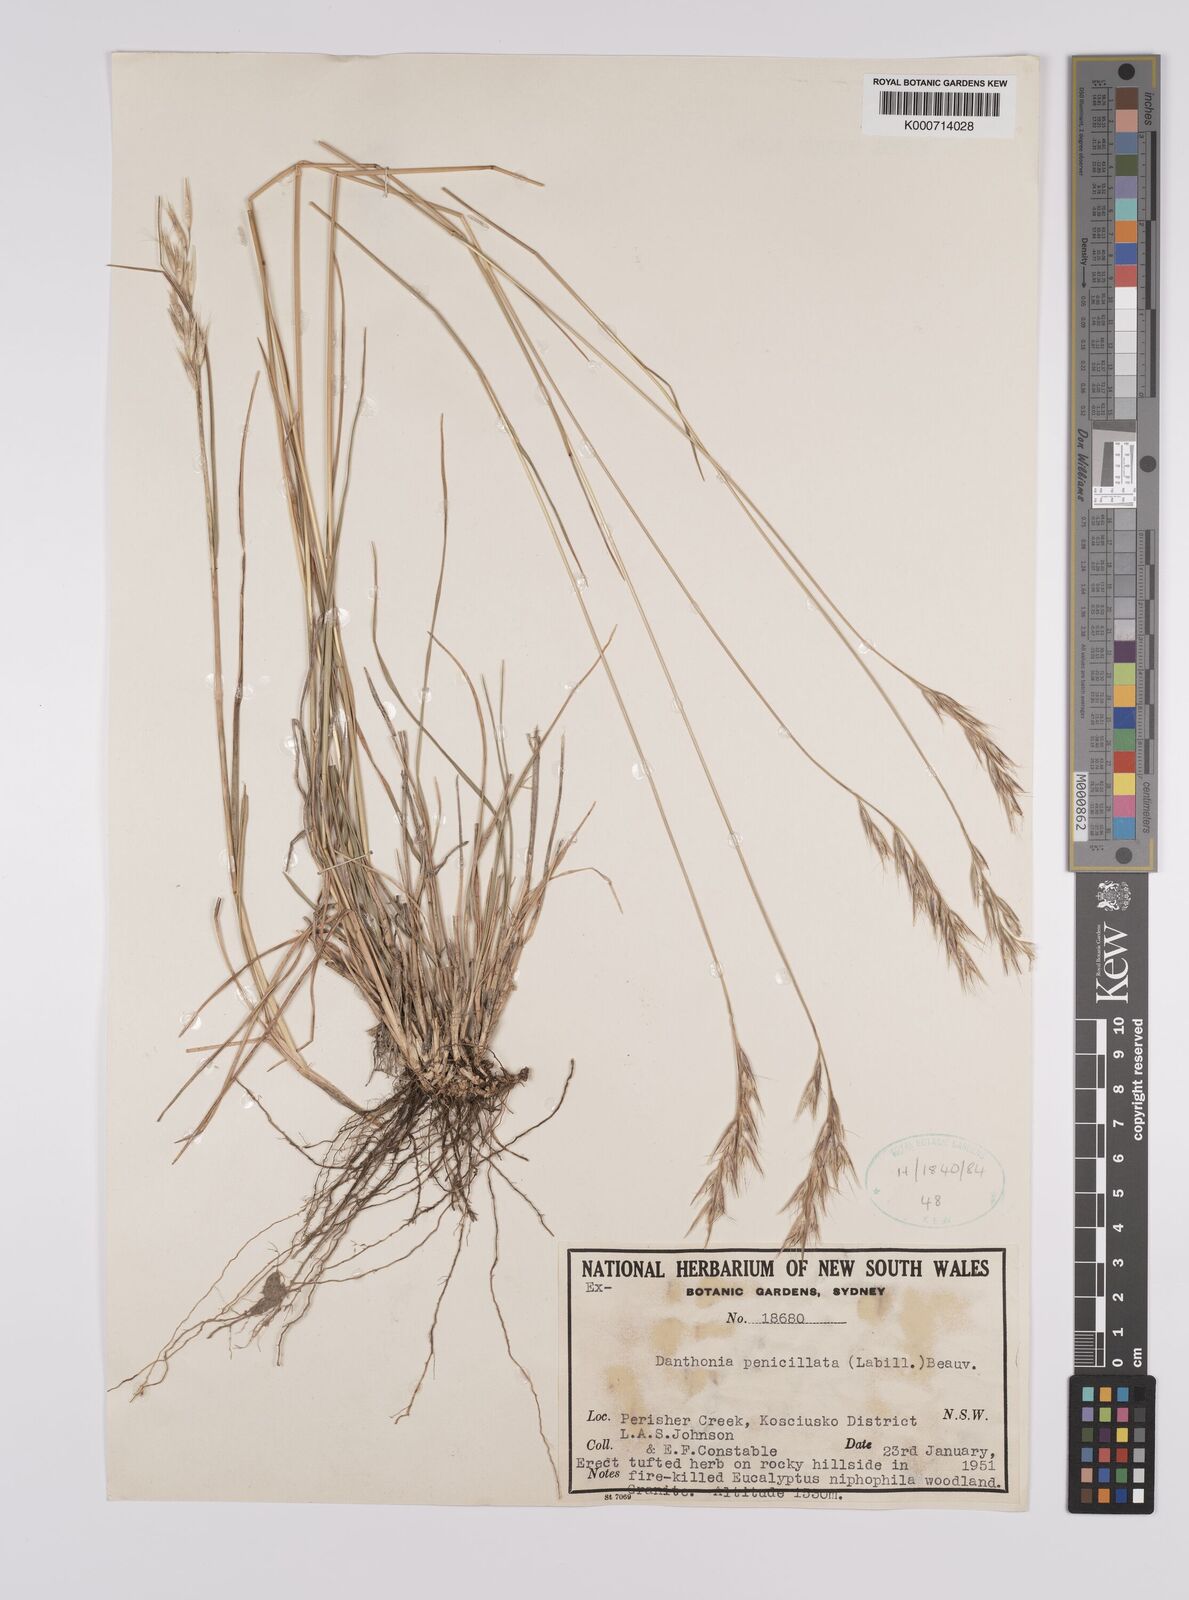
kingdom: Plantae
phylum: Tracheophyta
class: Liliopsida
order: Poales
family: Poaceae
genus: Rytidosperma
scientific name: Rytidosperma penicillatum
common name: Hairy wallaby grass
